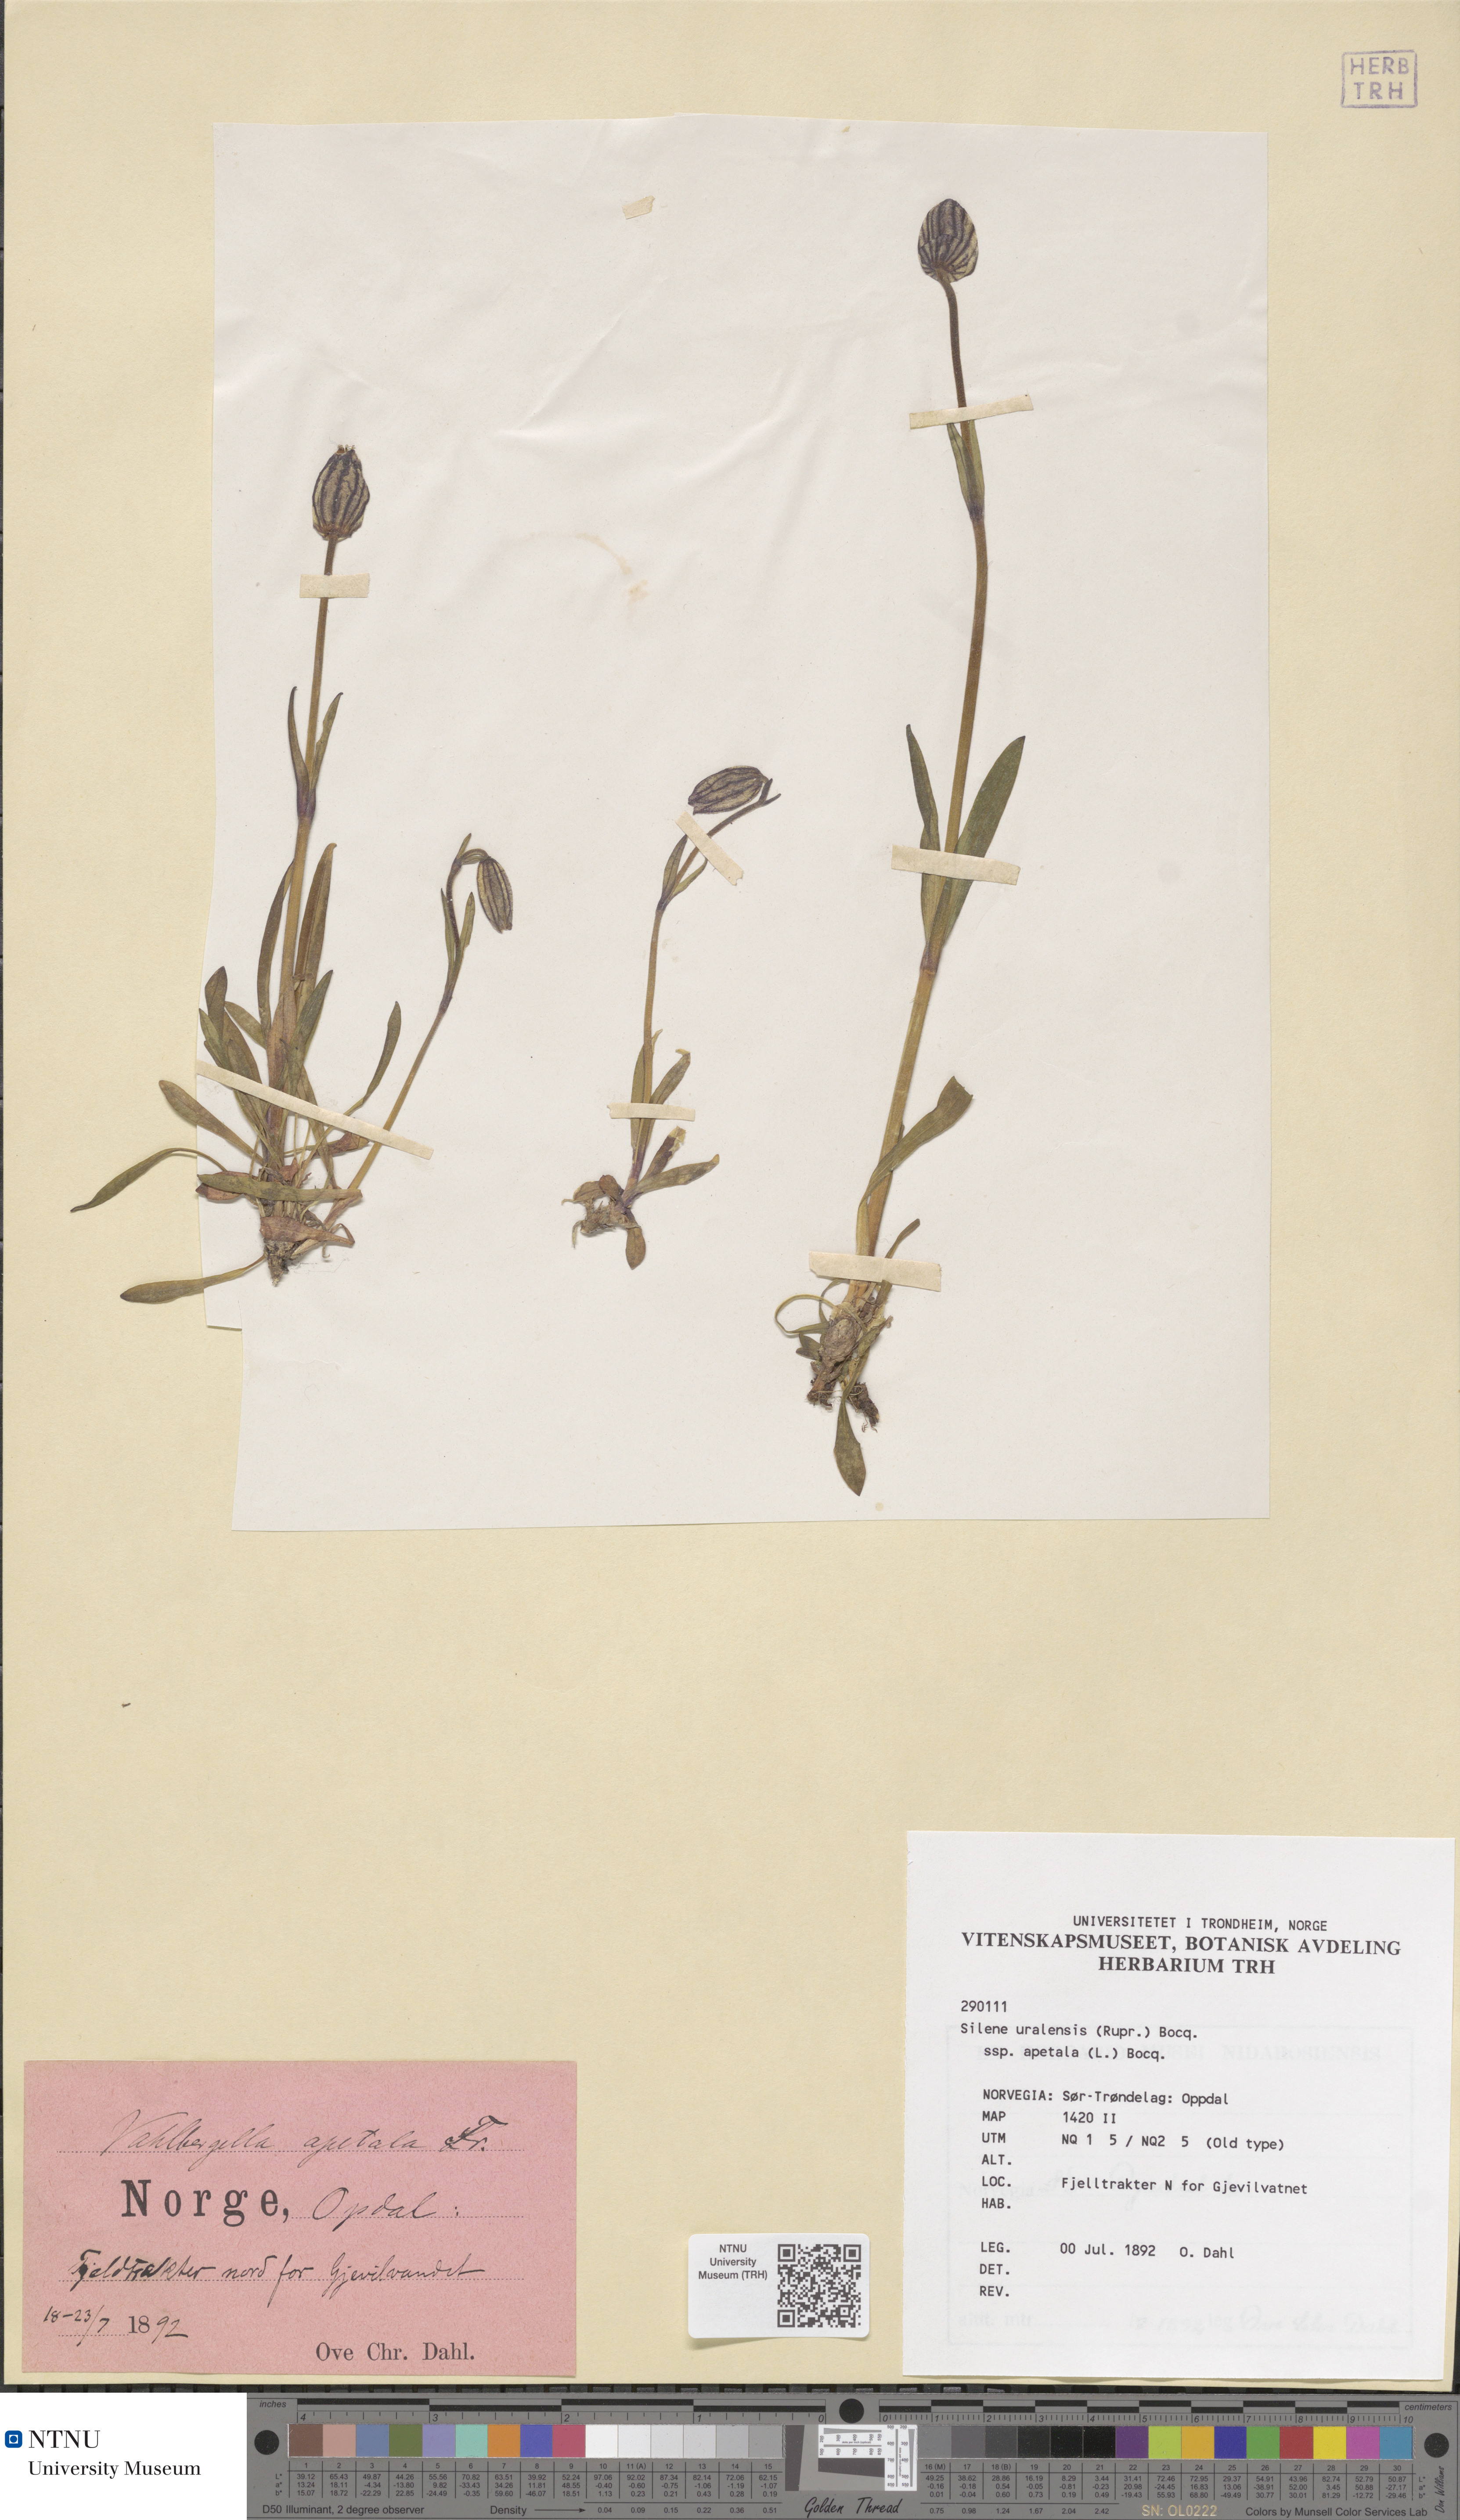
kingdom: Plantae
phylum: Tracheophyta
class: Magnoliopsida
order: Caryophyllales
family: Caryophyllaceae
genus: Silene
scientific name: Silene wahlbergella
